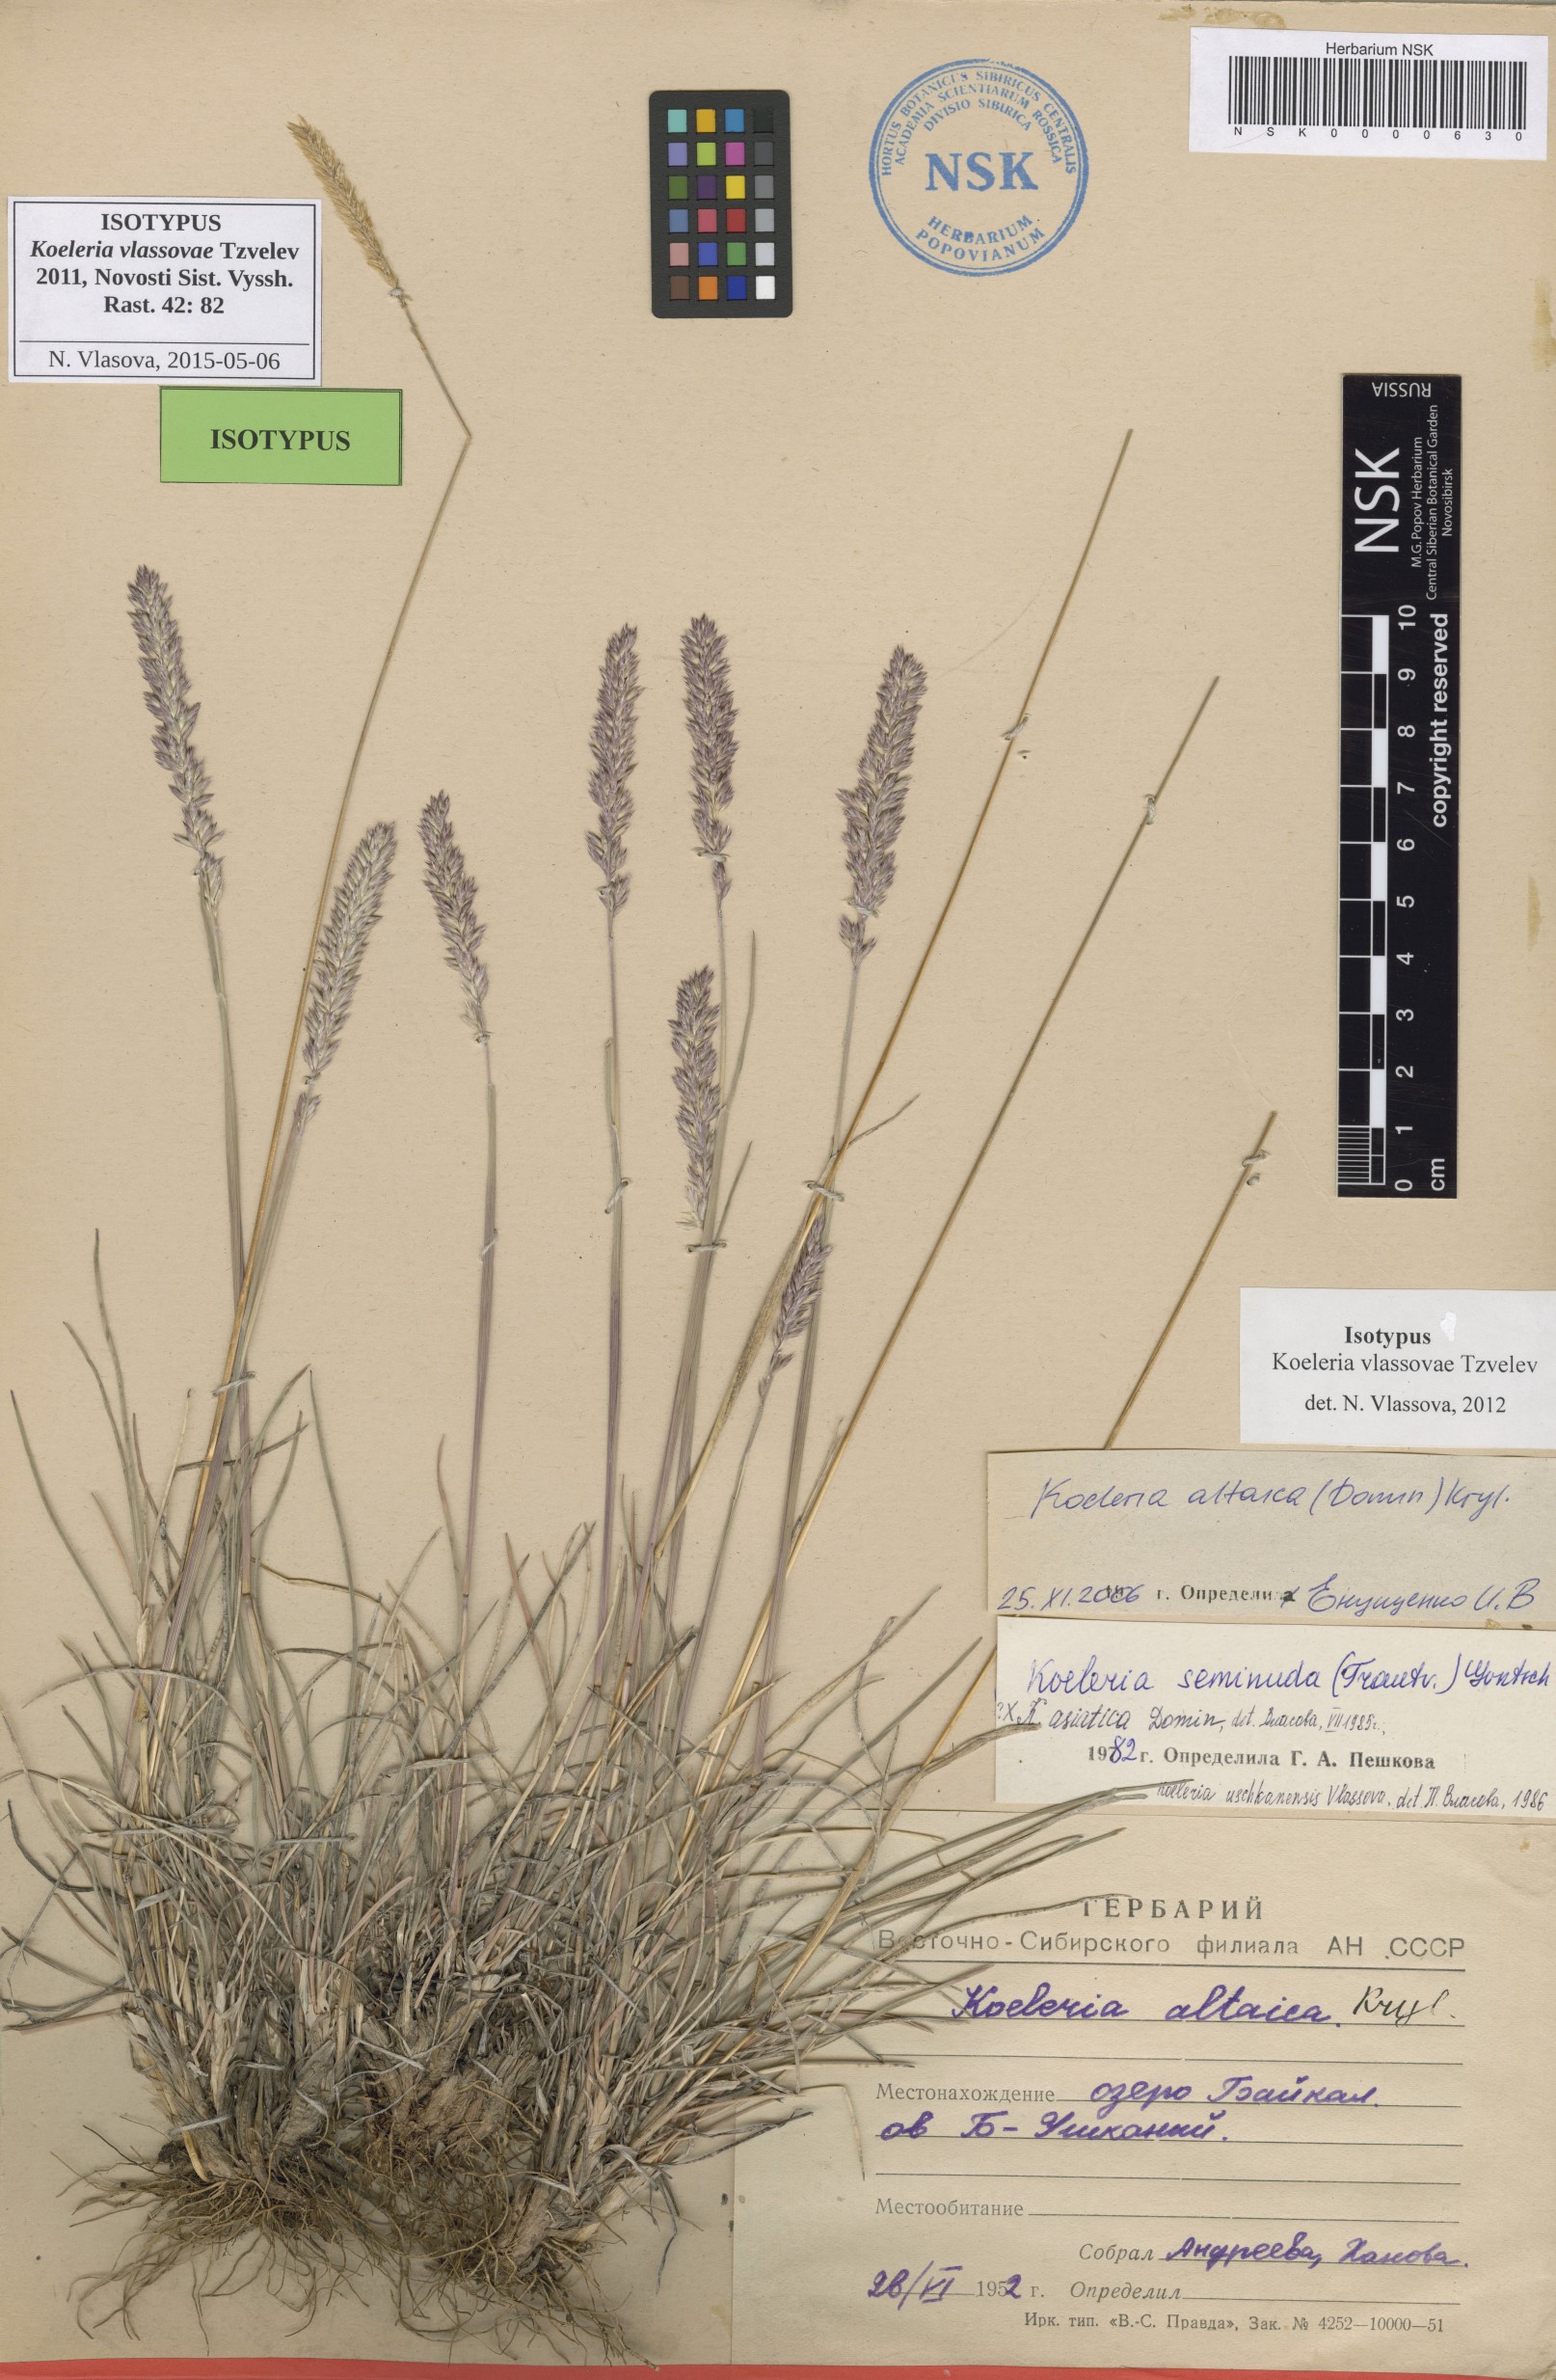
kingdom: Plantae
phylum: Tracheophyta
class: Liliopsida
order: Poales
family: Poaceae
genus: Koeleria
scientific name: Koeleria altaica
